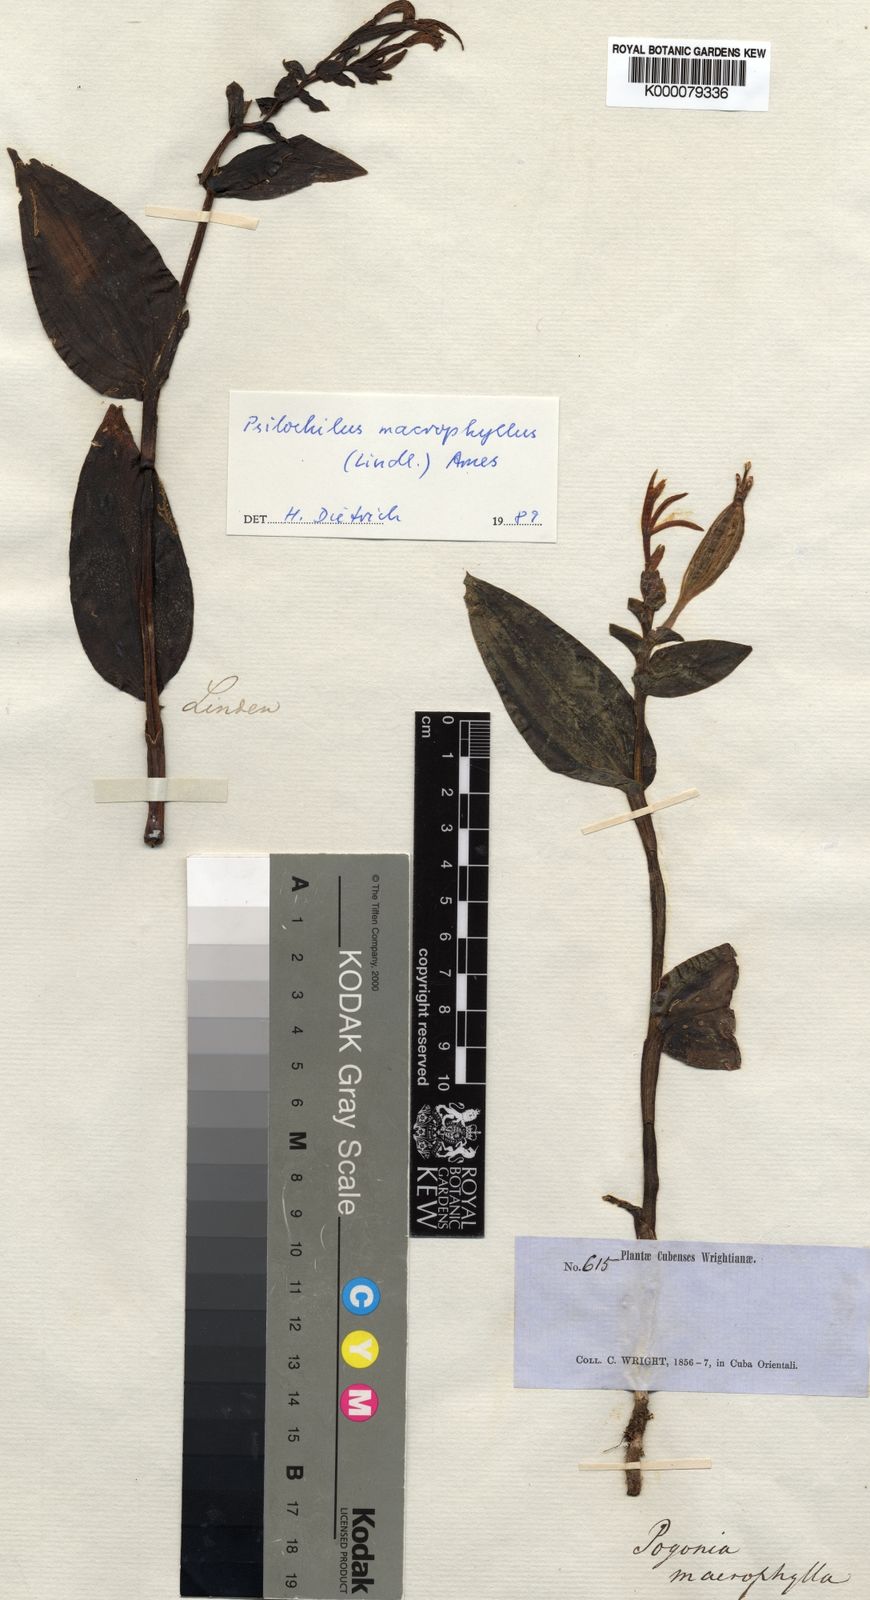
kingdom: Plantae
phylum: Tracheophyta
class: Liliopsida
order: Asparagales
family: Orchidaceae
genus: Psilochilus
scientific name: Psilochilus macrophyllus
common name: Raggedlip orchid
